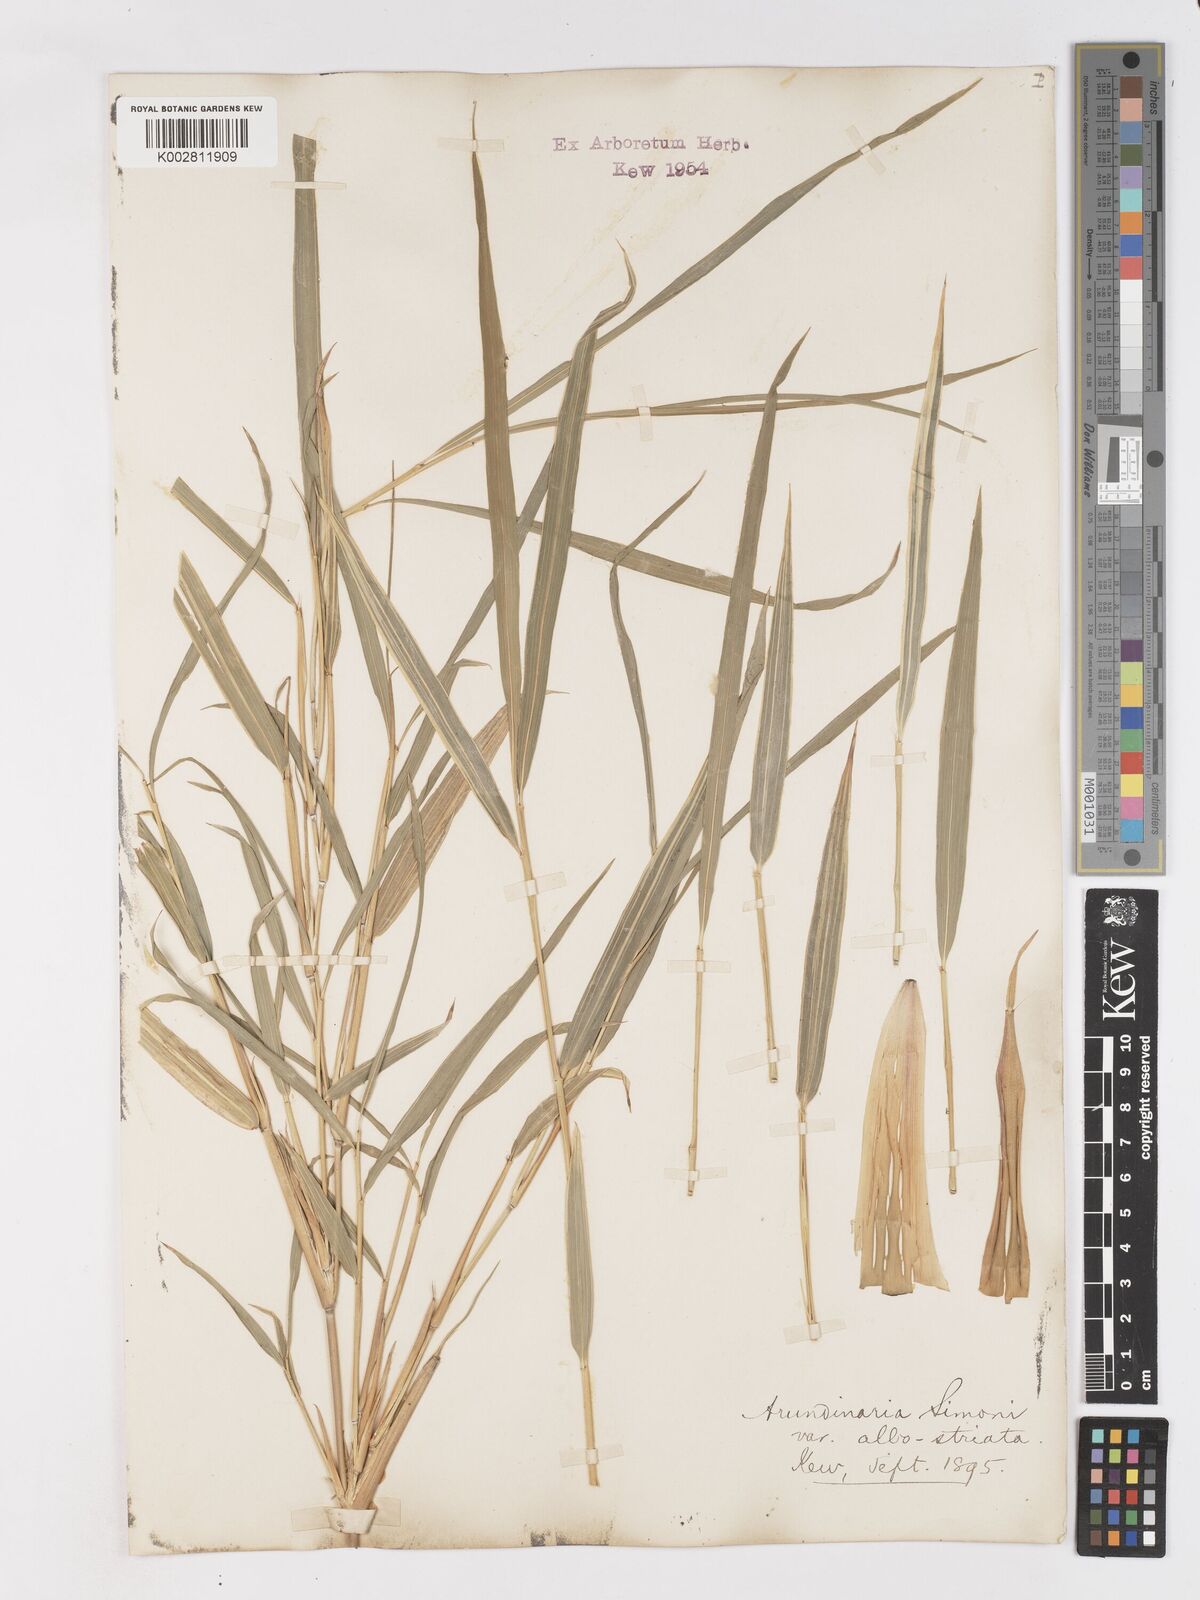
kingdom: Plantae
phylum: Tracheophyta
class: Liliopsida
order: Poales
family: Poaceae
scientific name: Poaceae
